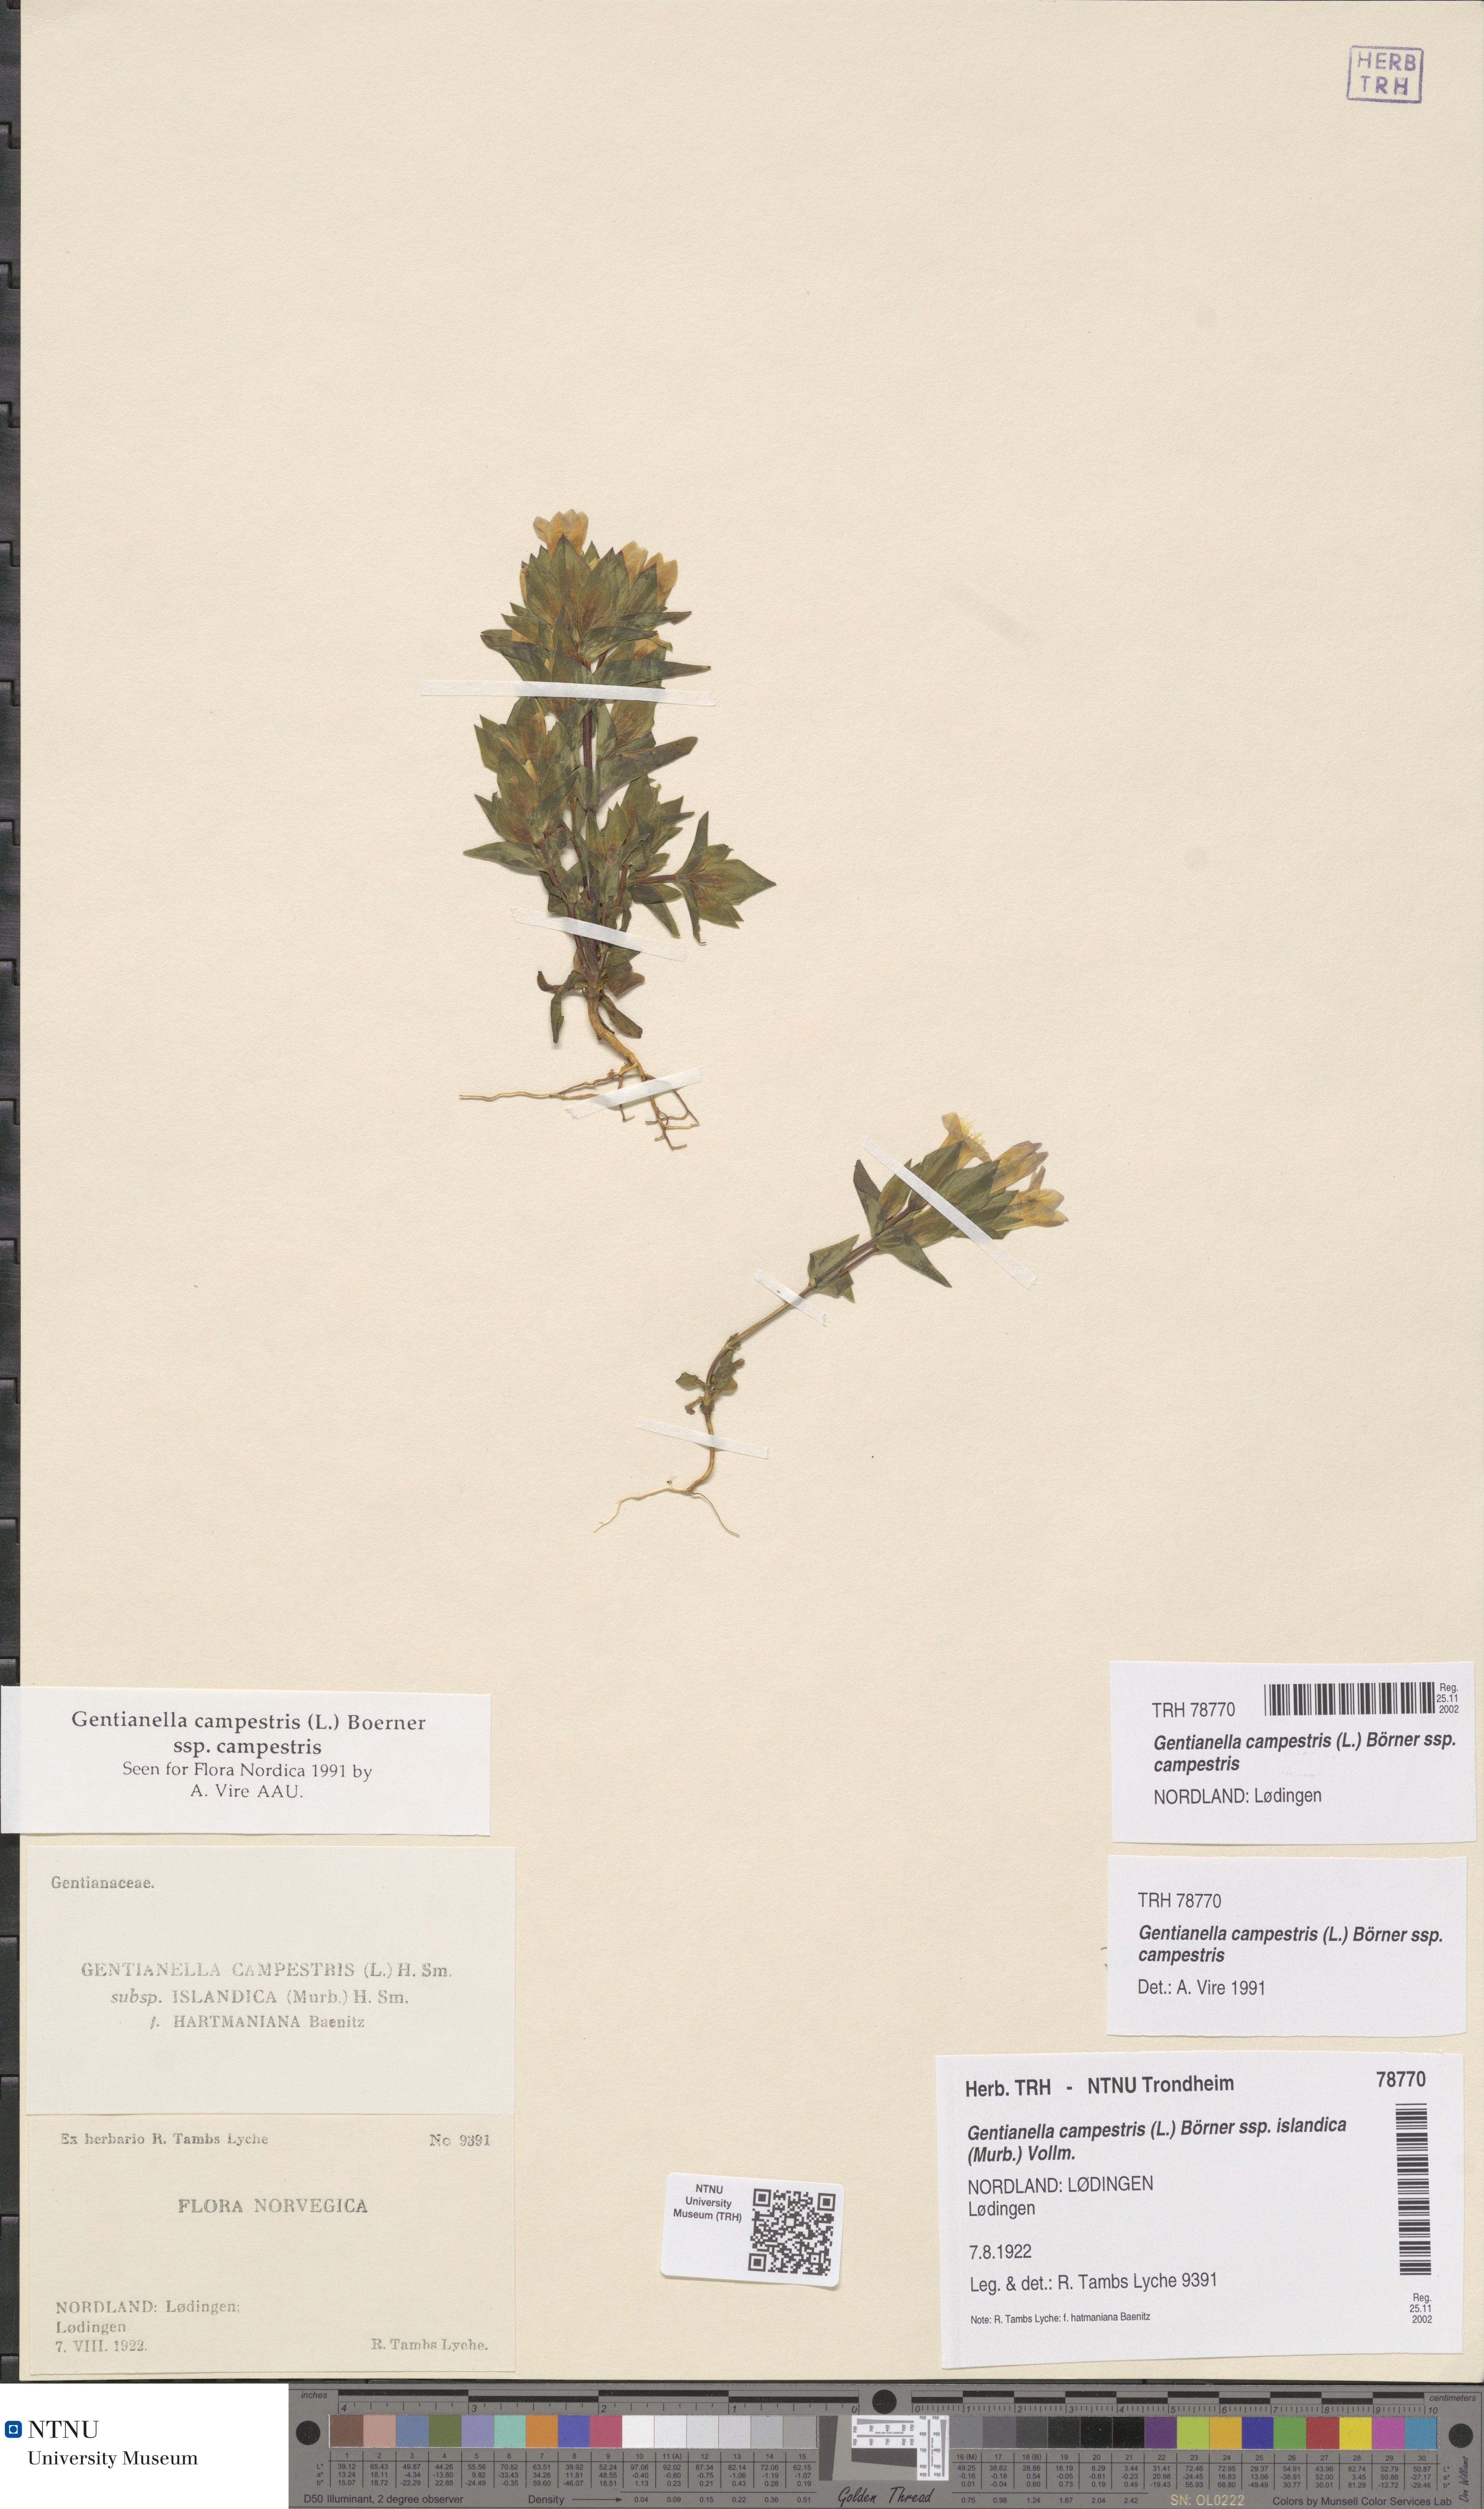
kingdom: Plantae
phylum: Tracheophyta
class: Magnoliopsida
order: Gentianales
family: Gentianaceae
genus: Gentianella
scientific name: Gentianella campestris
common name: Field gentian
